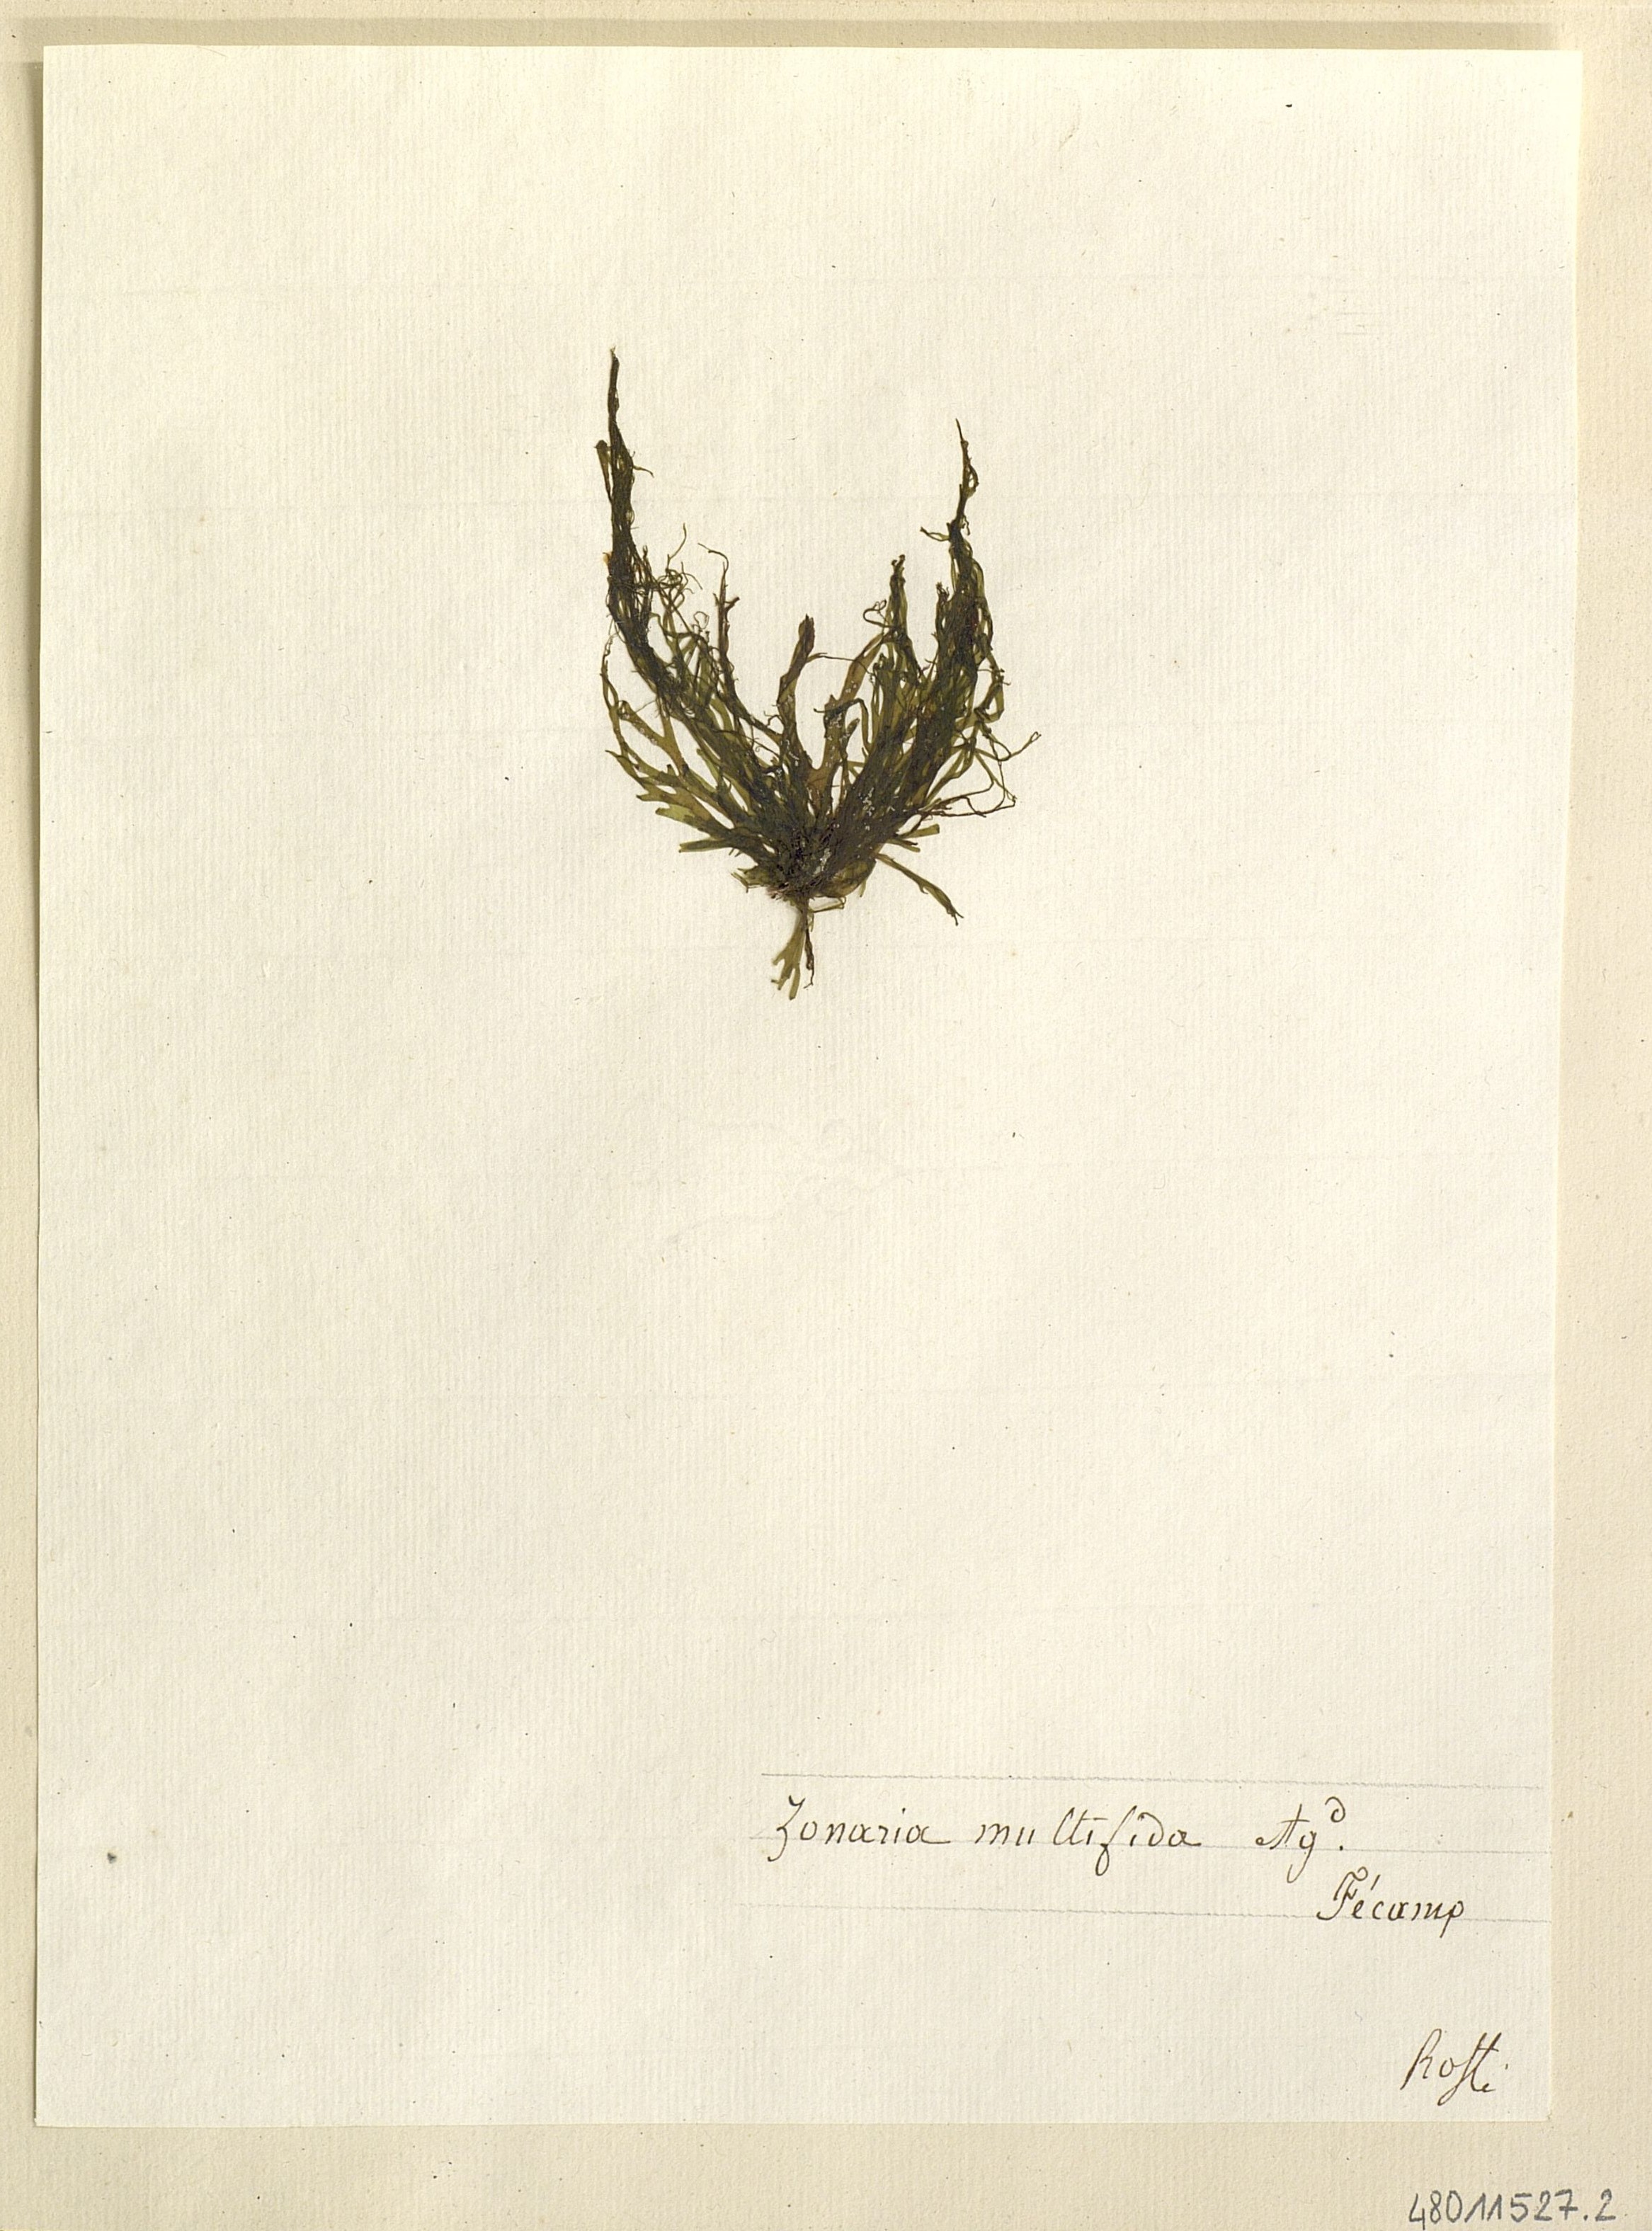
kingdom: Chromista
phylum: Ochrophyta
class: Phaeophyceae
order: Cutleriales
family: Cutleriaceae
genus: Cutleria
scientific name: Cutleria multifida
